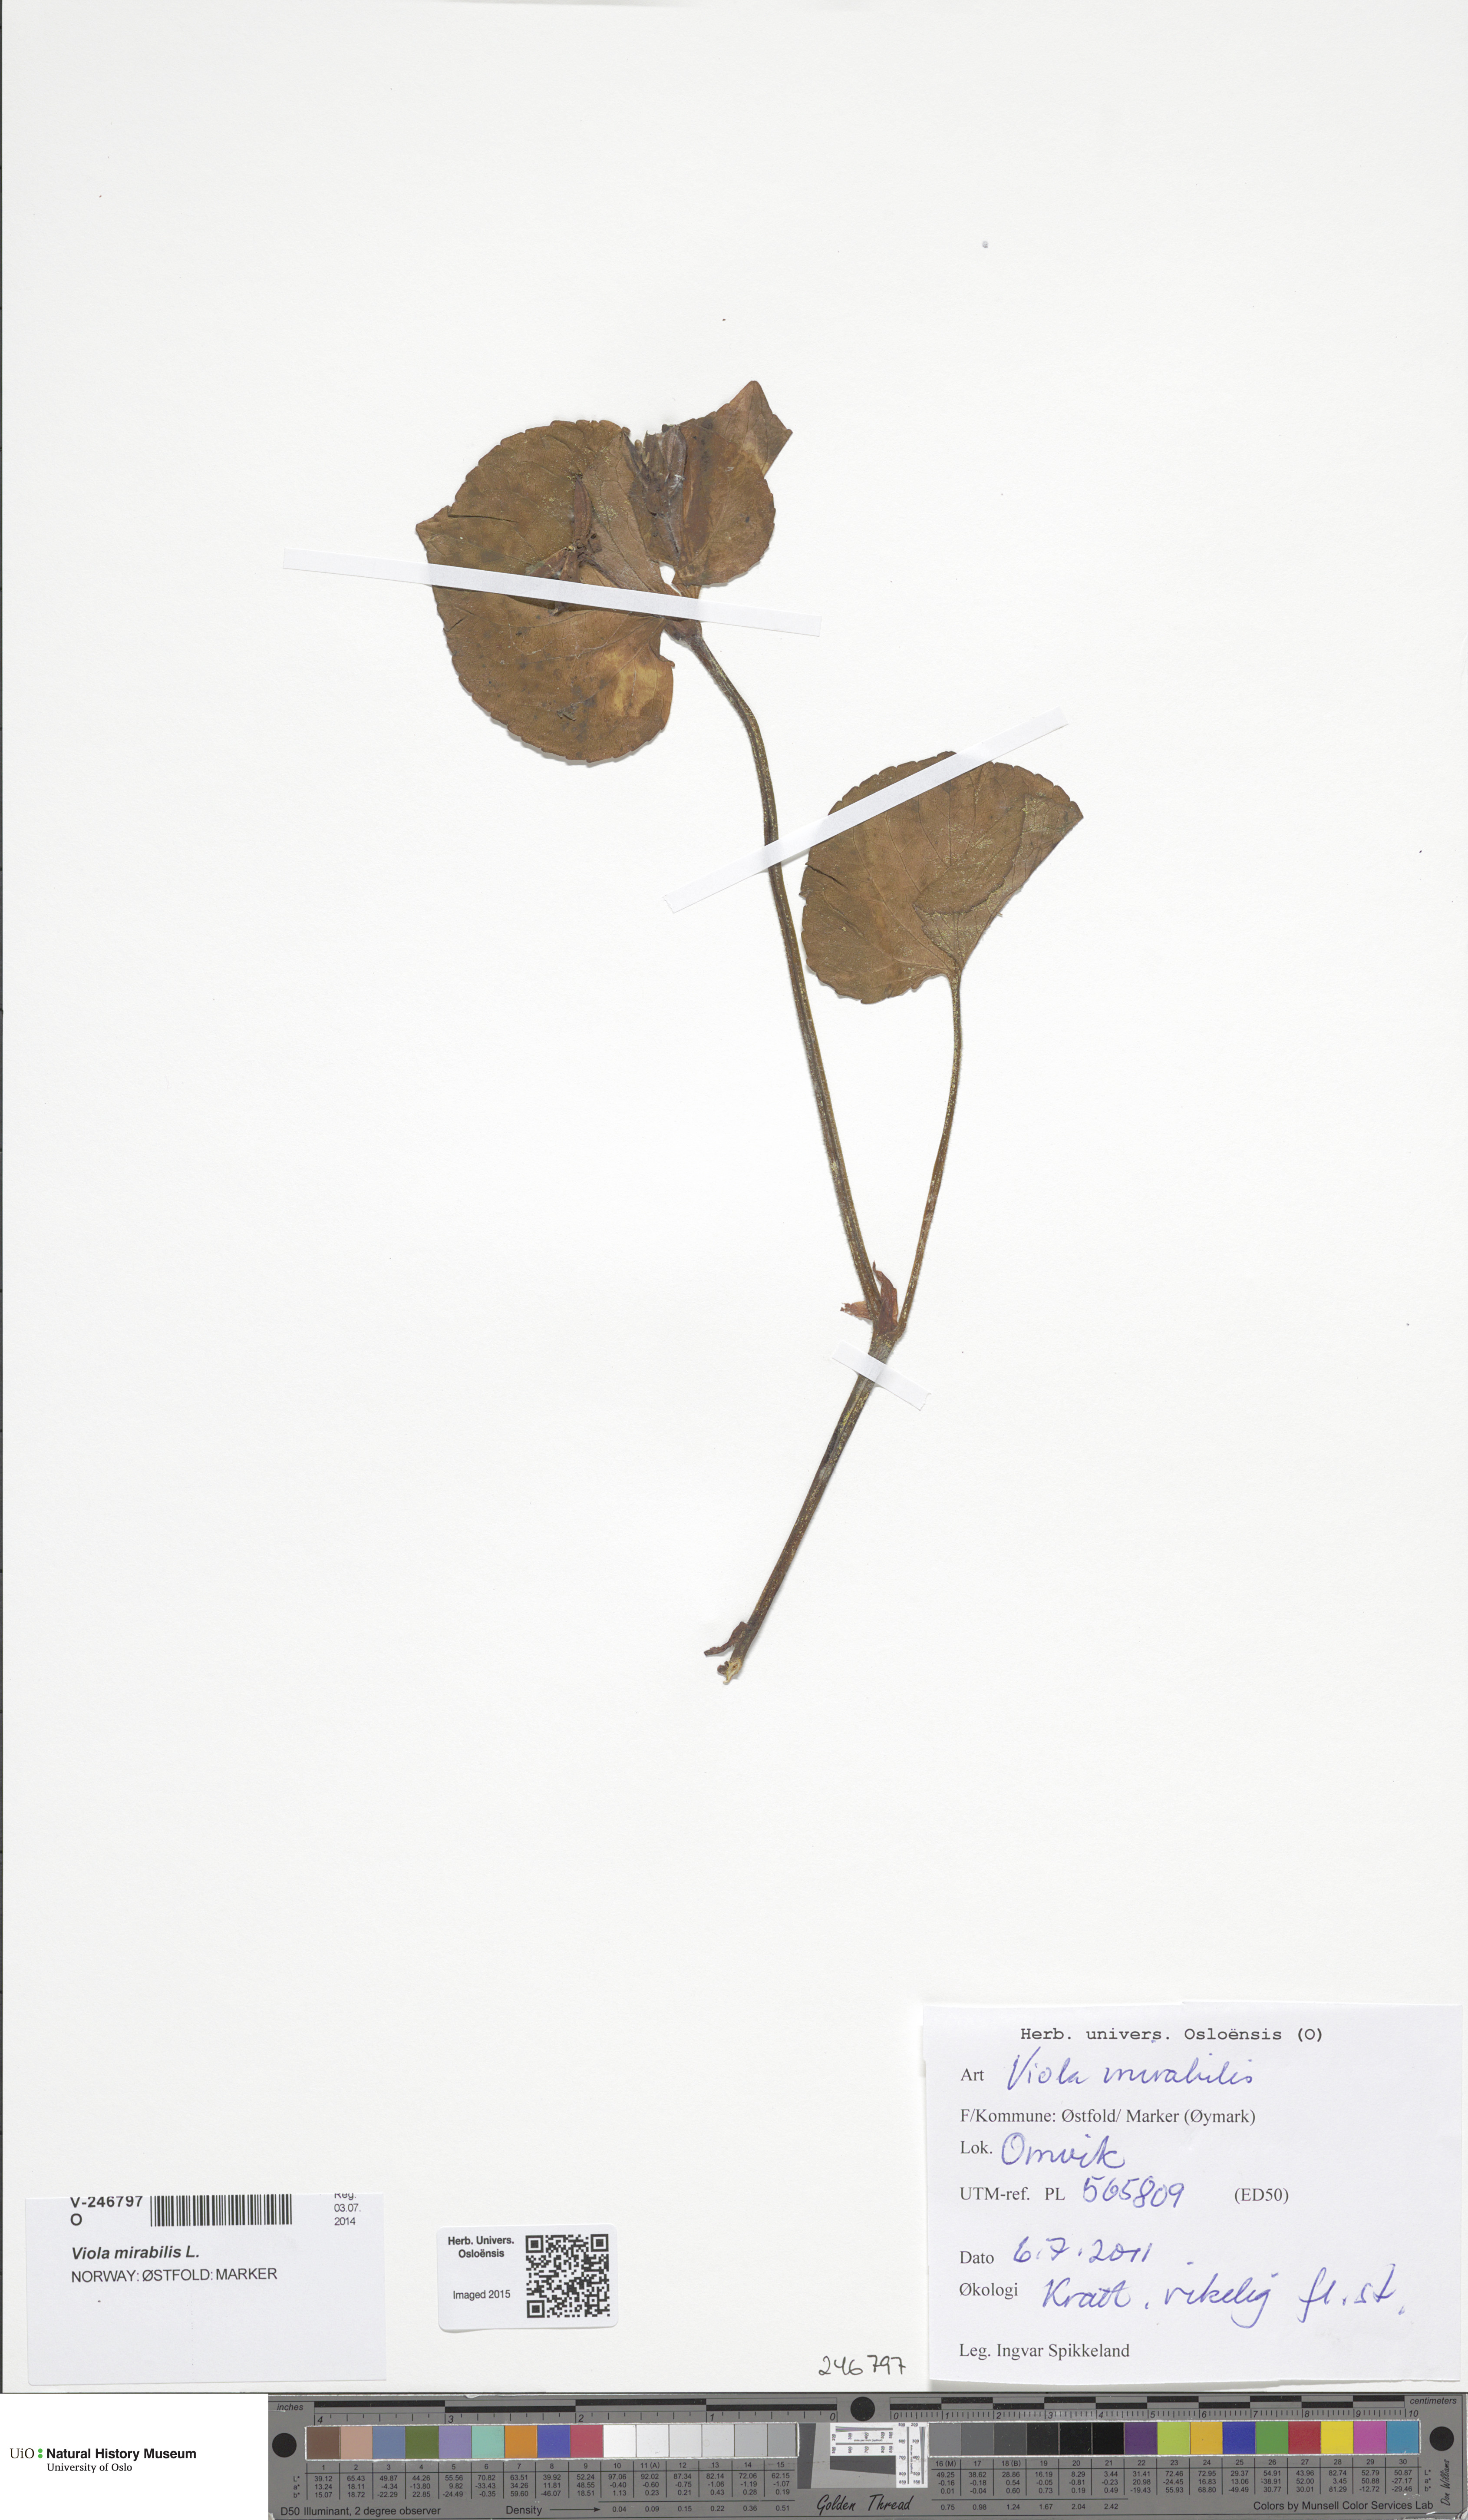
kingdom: Plantae
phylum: Tracheophyta
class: Magnoliopsida
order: Malpighiales
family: Violaceae
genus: Viola
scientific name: Viola mirabilis
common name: Wonder violet
